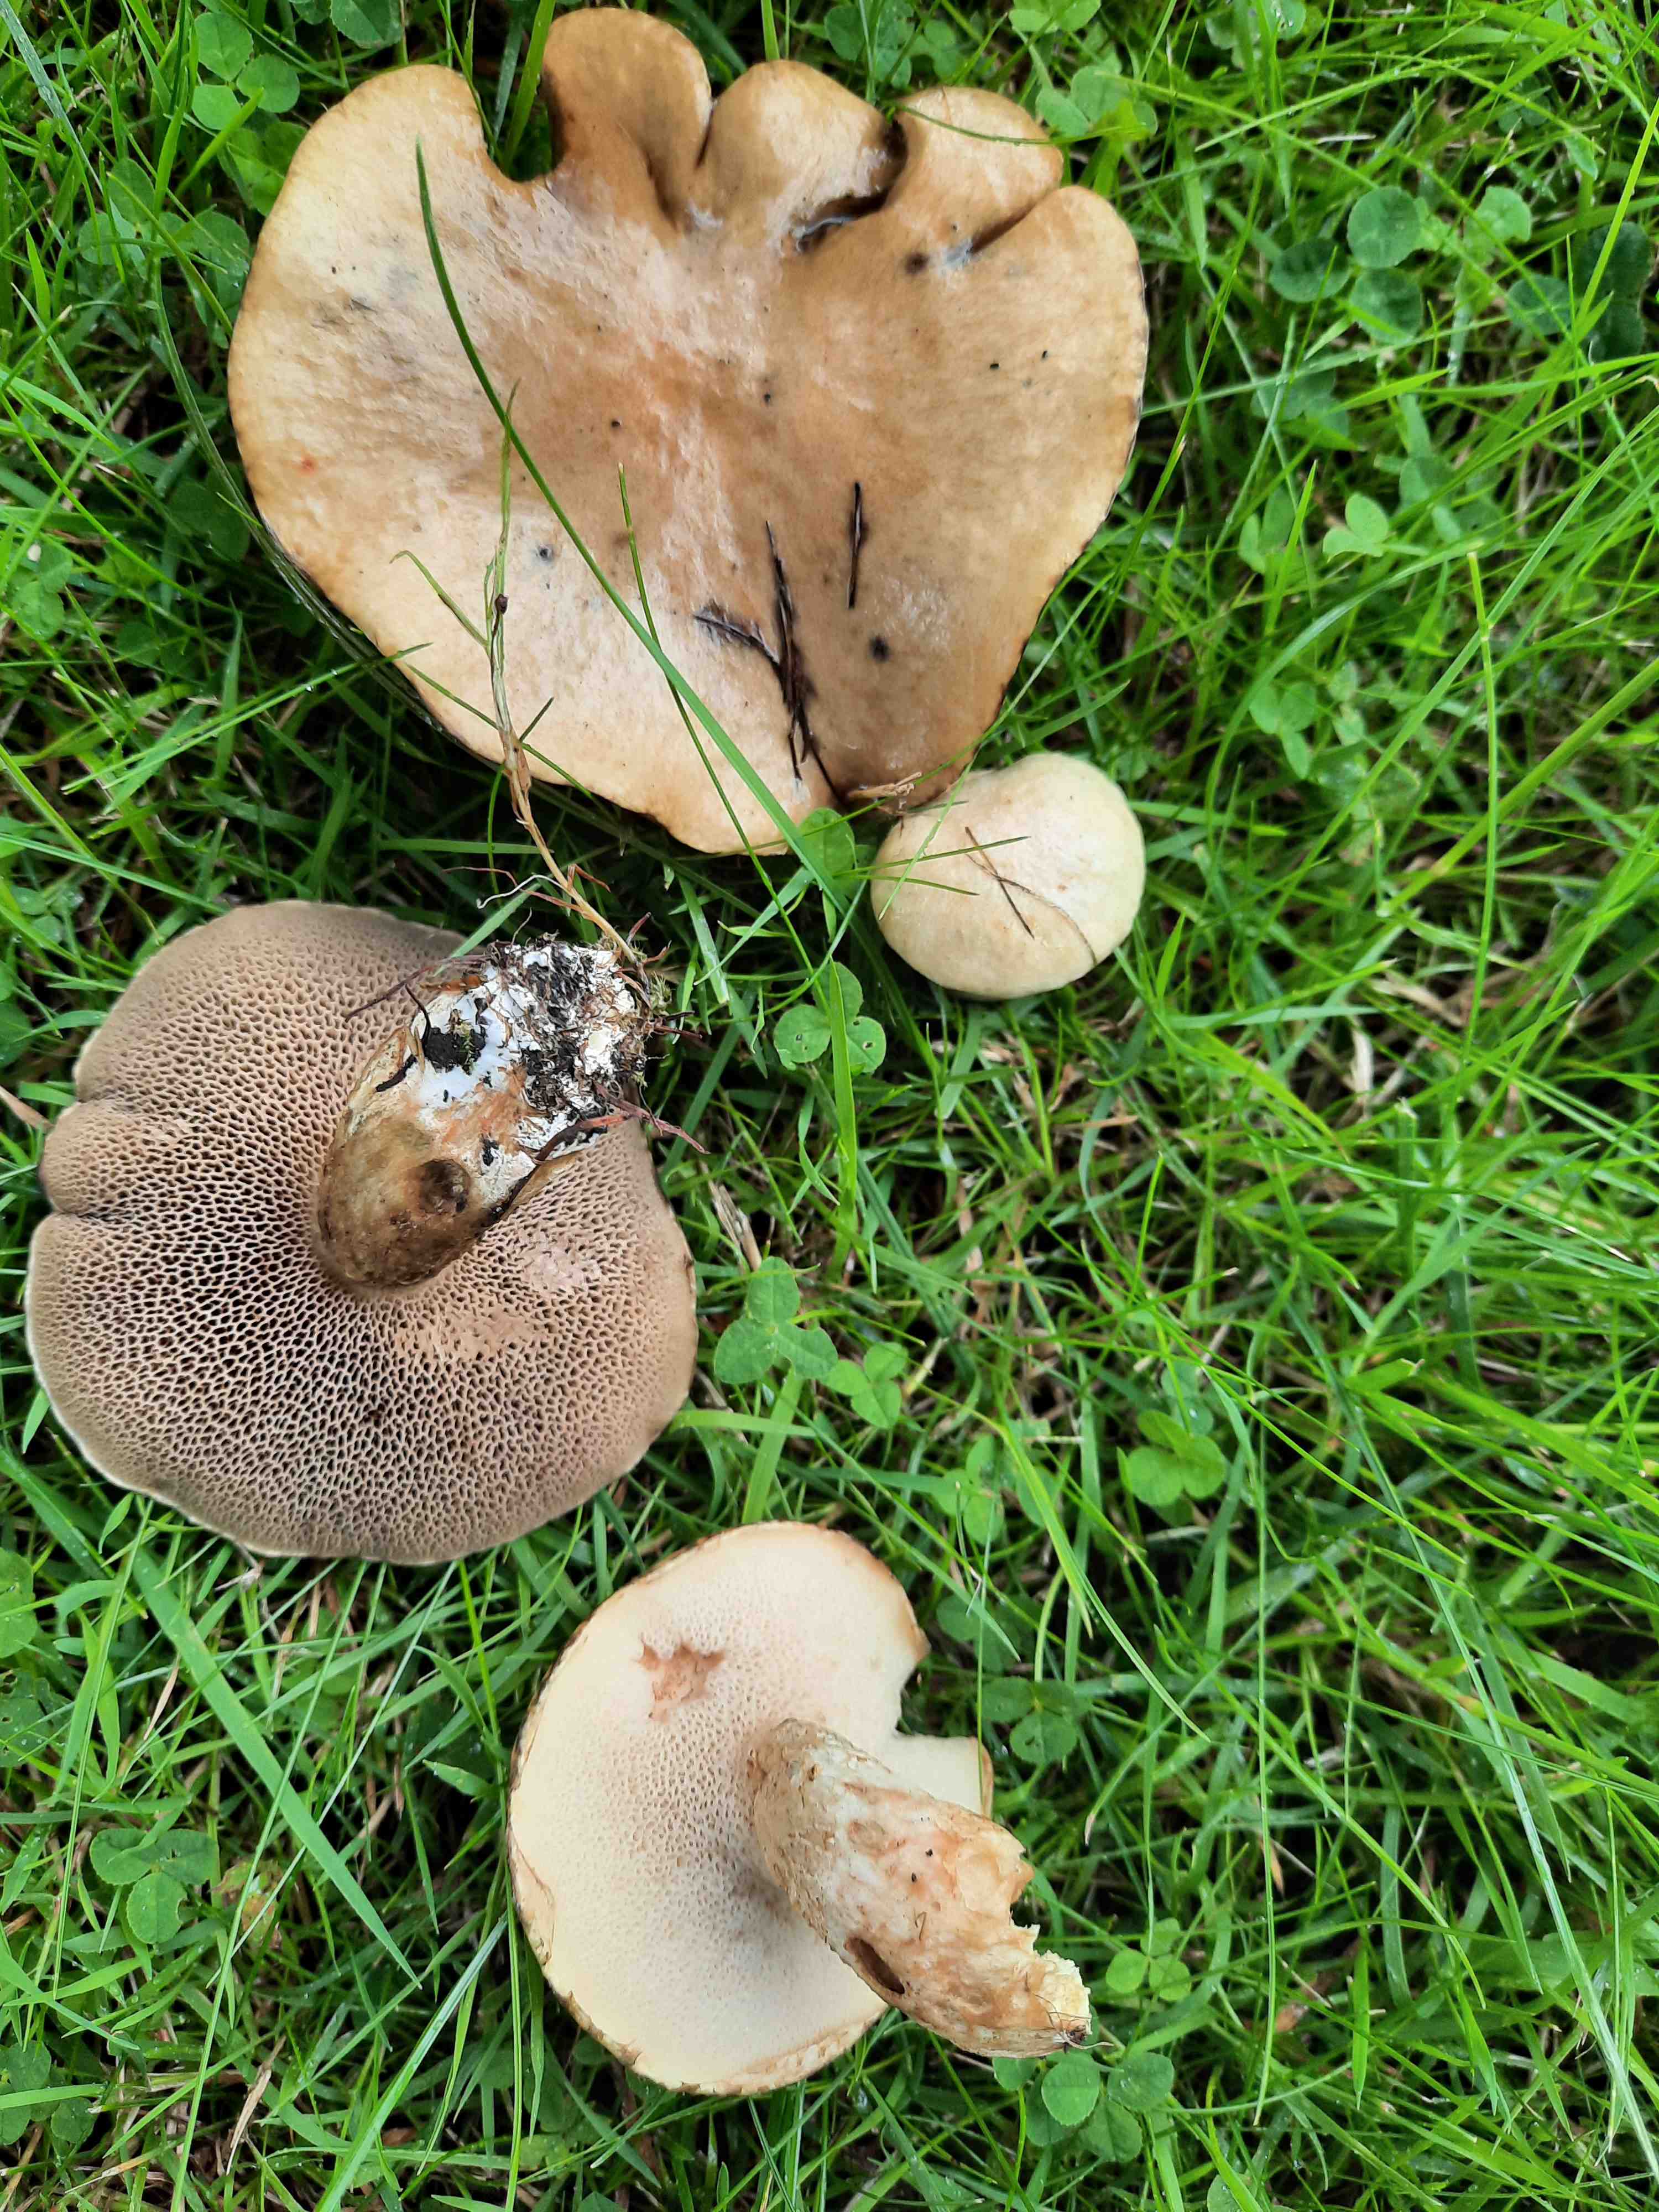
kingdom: Fungi
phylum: Basidiomycota
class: Agaricomycetes
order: Boletales
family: Suillaceae
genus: Suillus
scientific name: Suillus viscidus
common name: olivengrå slimrørhat
